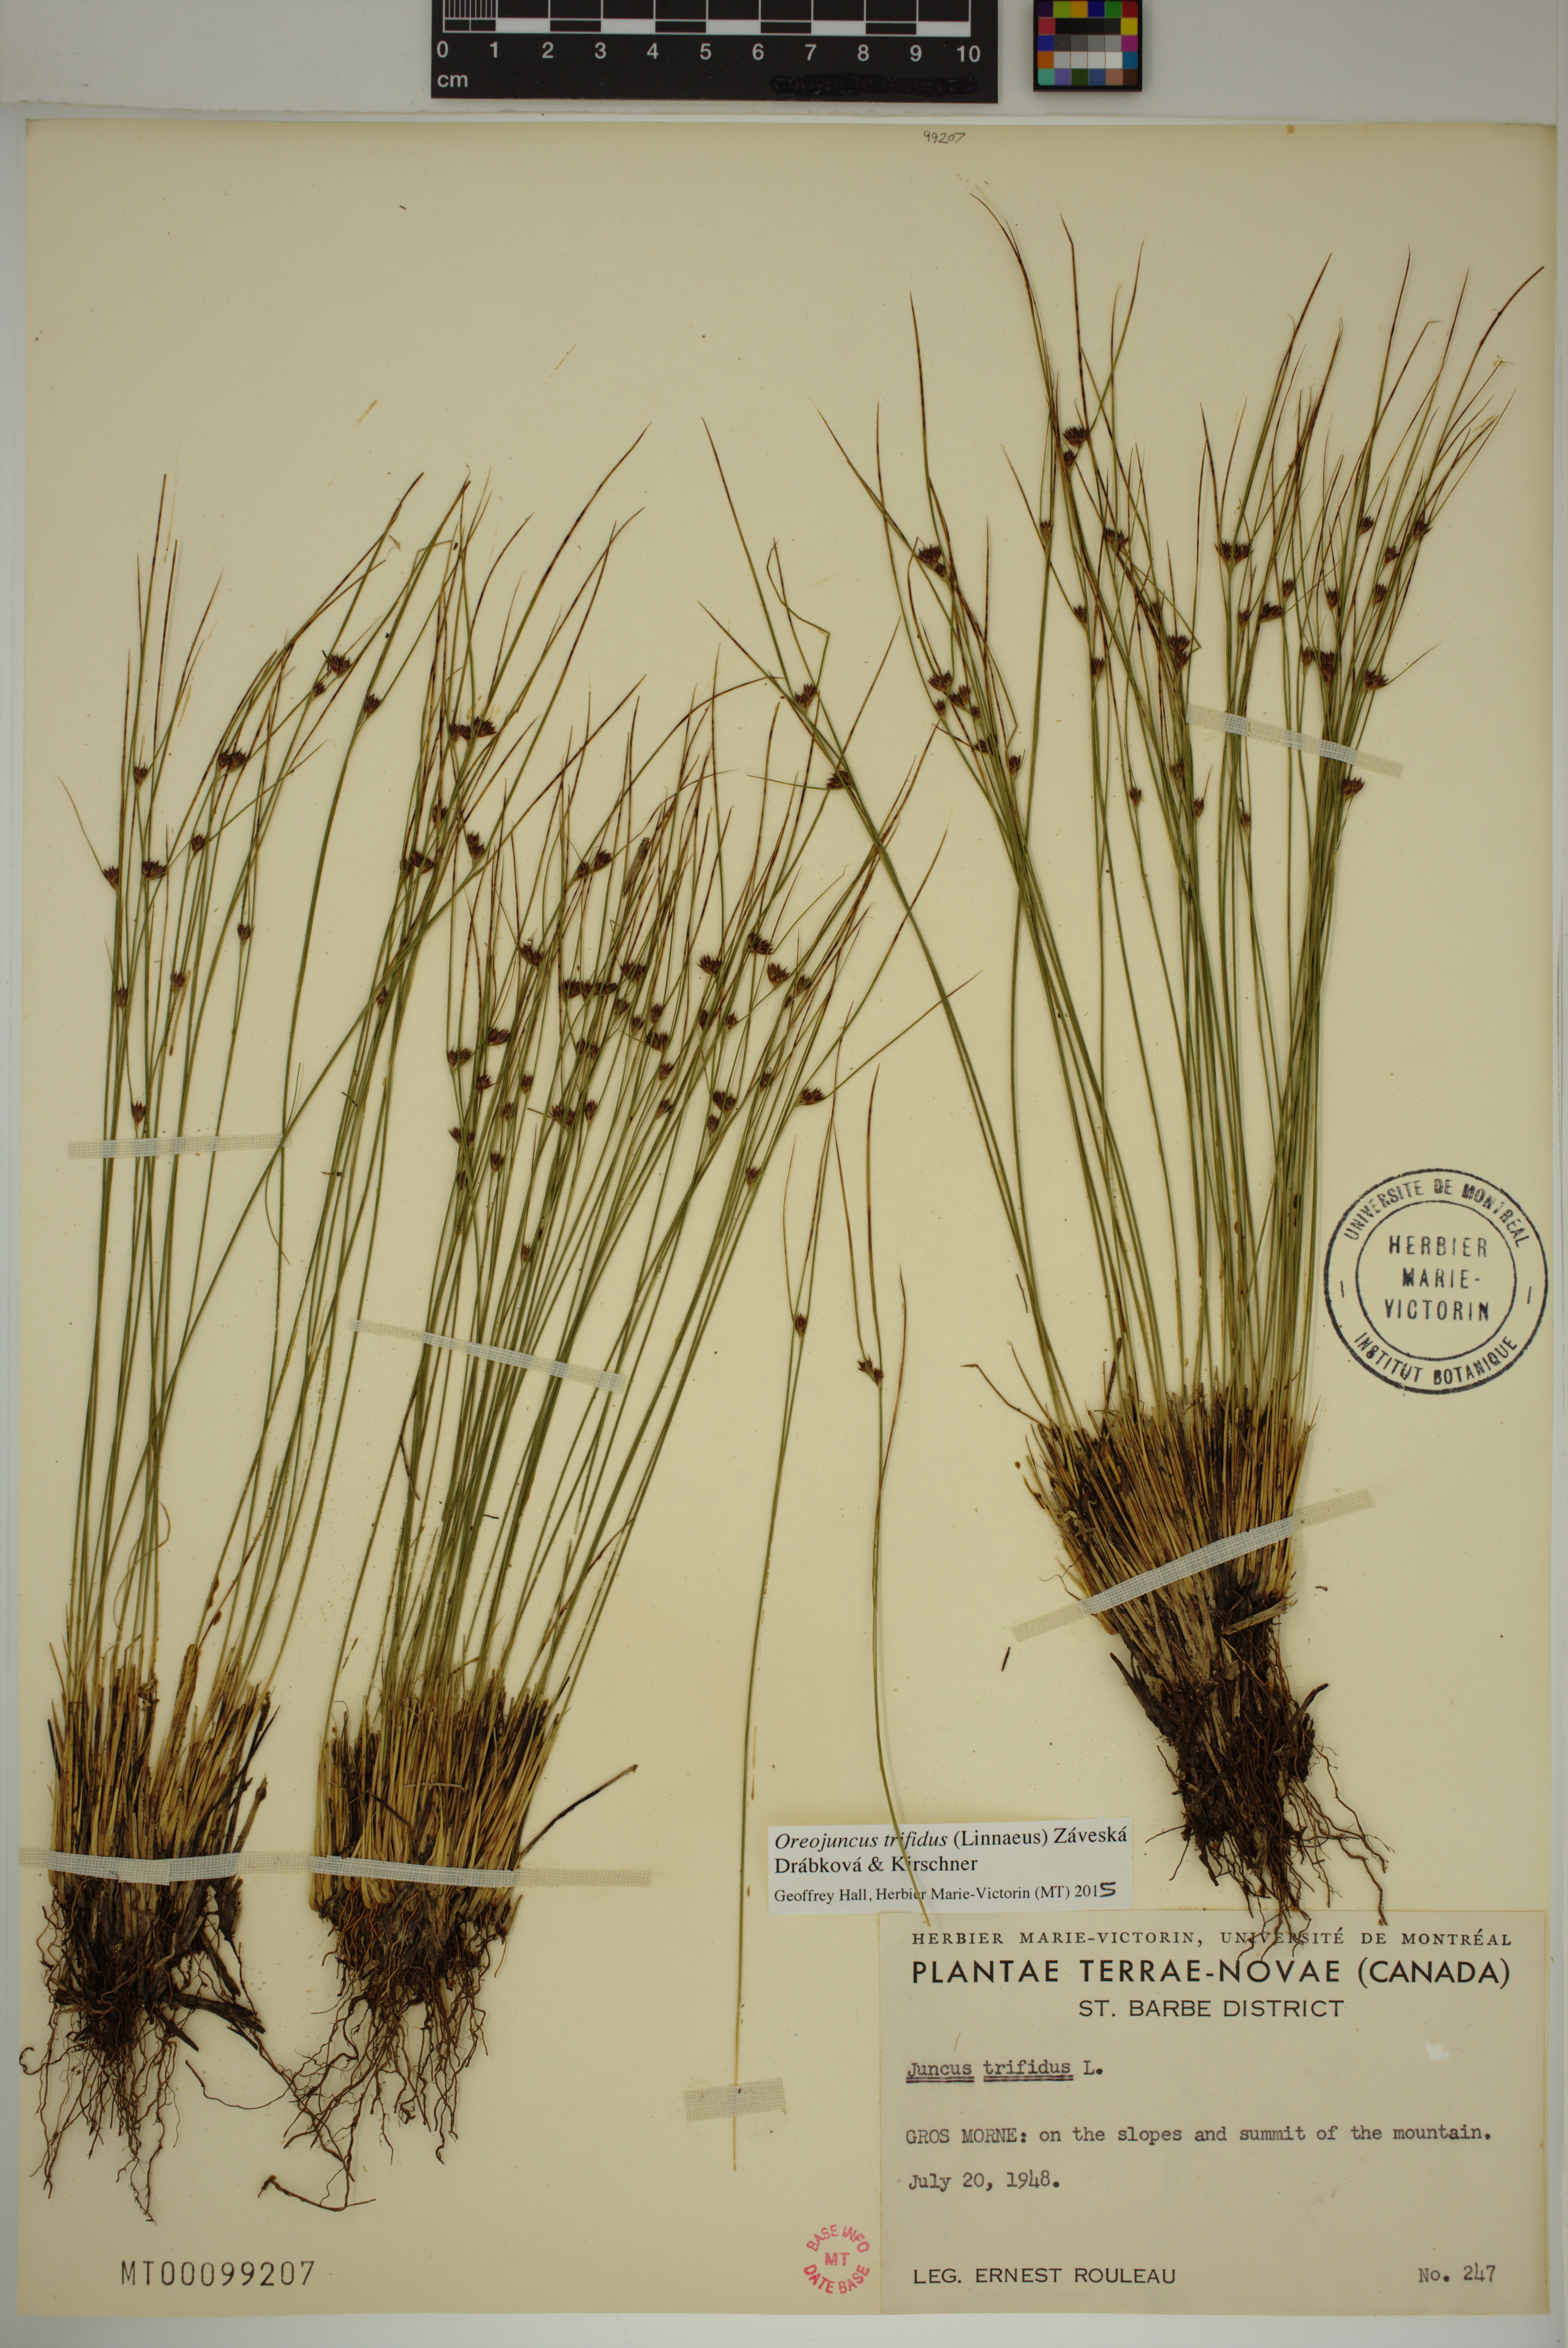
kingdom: Plantae
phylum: Tracheophyta
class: Liliopsida
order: Poales
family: Juncaceae
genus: Oreojuncus
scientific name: Oreojuncus trifidus
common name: Highland rush
